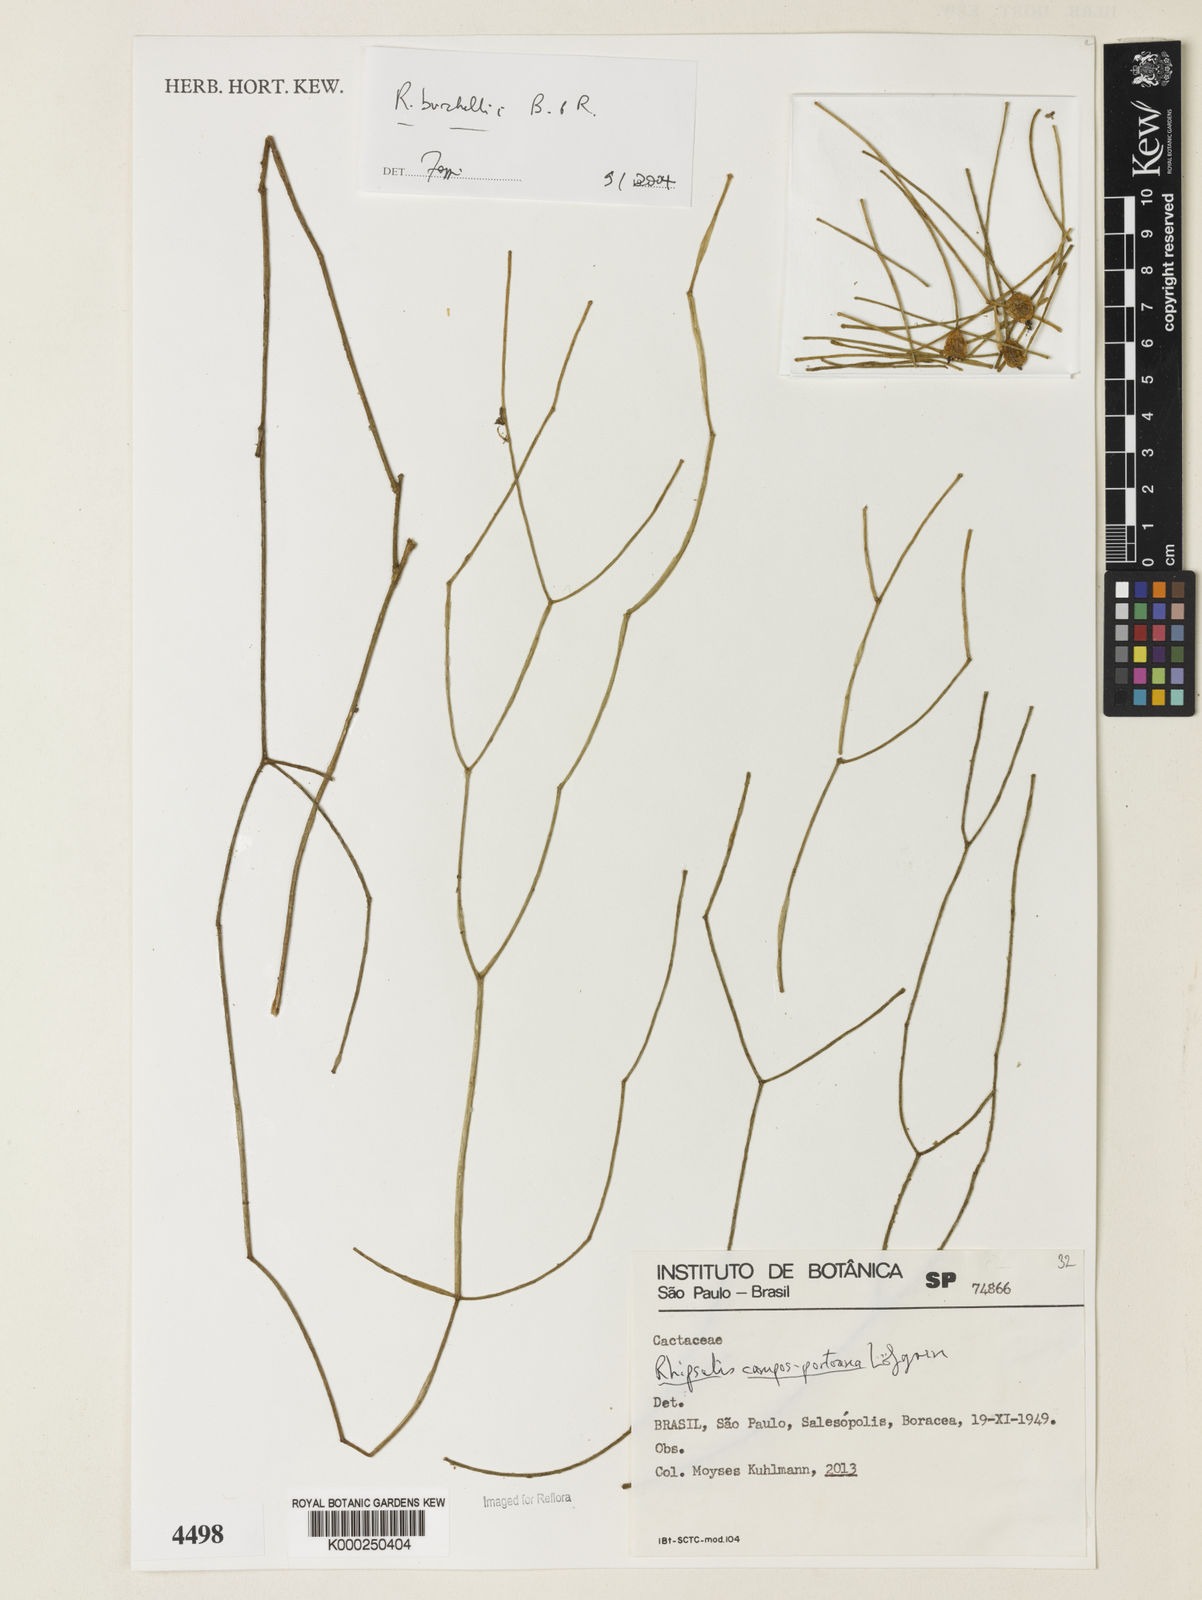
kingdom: Plantae
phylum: Tracheophyta
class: Magnoliopsida
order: Caryophyllales
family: Cactaceae
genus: Rhipsalis
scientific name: Rhipsalis burchellii
